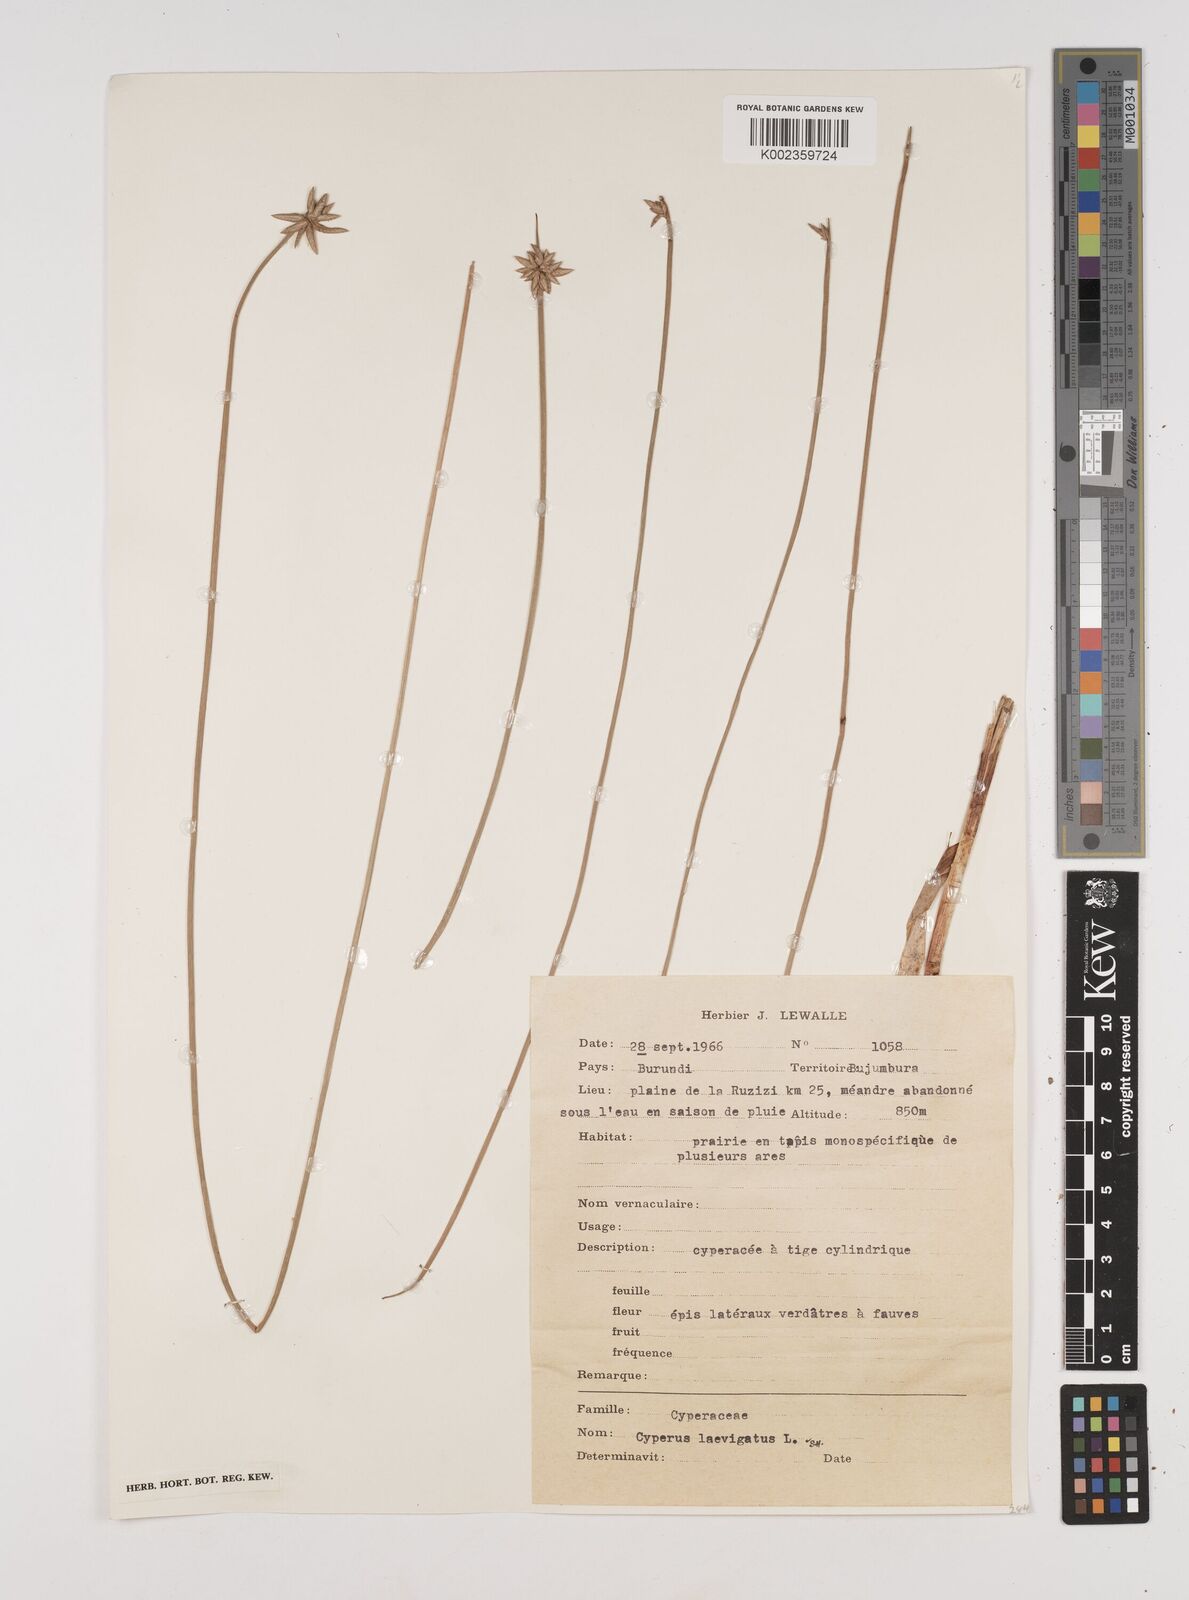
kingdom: Plantae
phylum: Tracheophyta
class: Liliopsida
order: Poales
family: Cyperaceae
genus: Cyperus
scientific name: Cyperus laevigatus
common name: Smooth flat sedge
